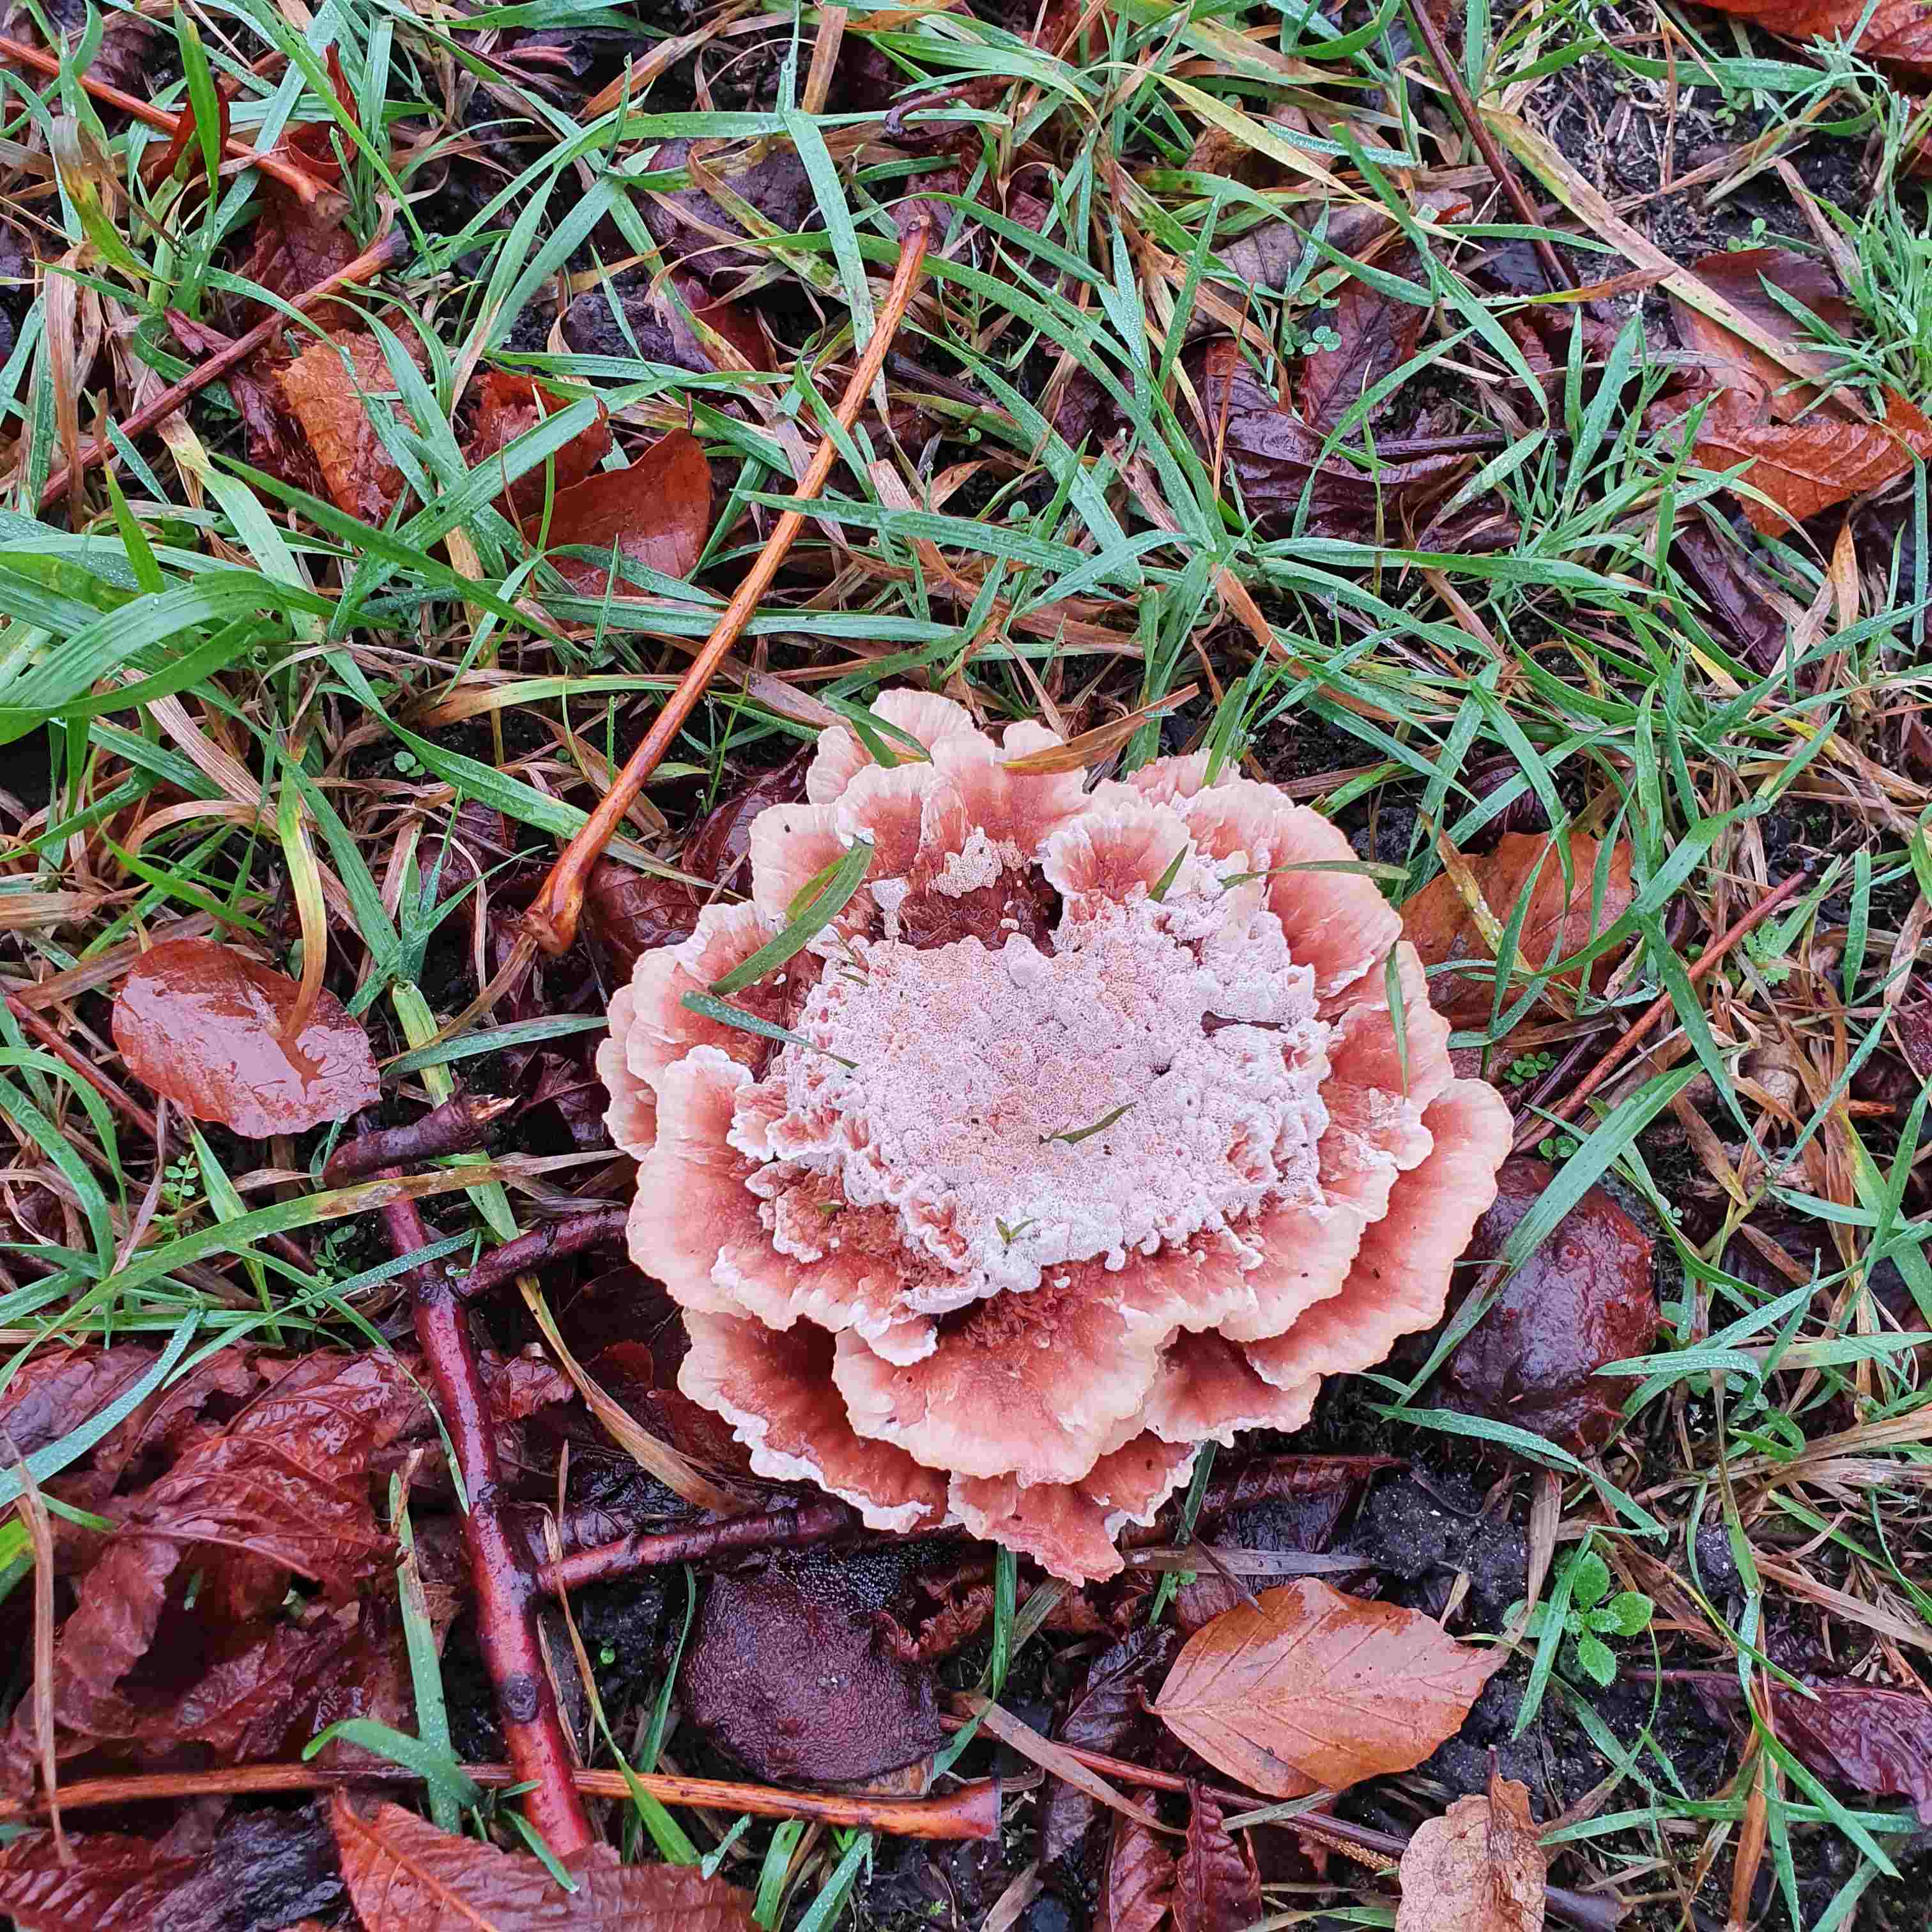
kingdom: Fungi
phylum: Basidiomycota
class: Agaricomycetes
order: Polyporales
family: Podoscyphaceae
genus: Abortiporus
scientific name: Abortiporus biennis
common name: rødmende pjalteporesvamp
